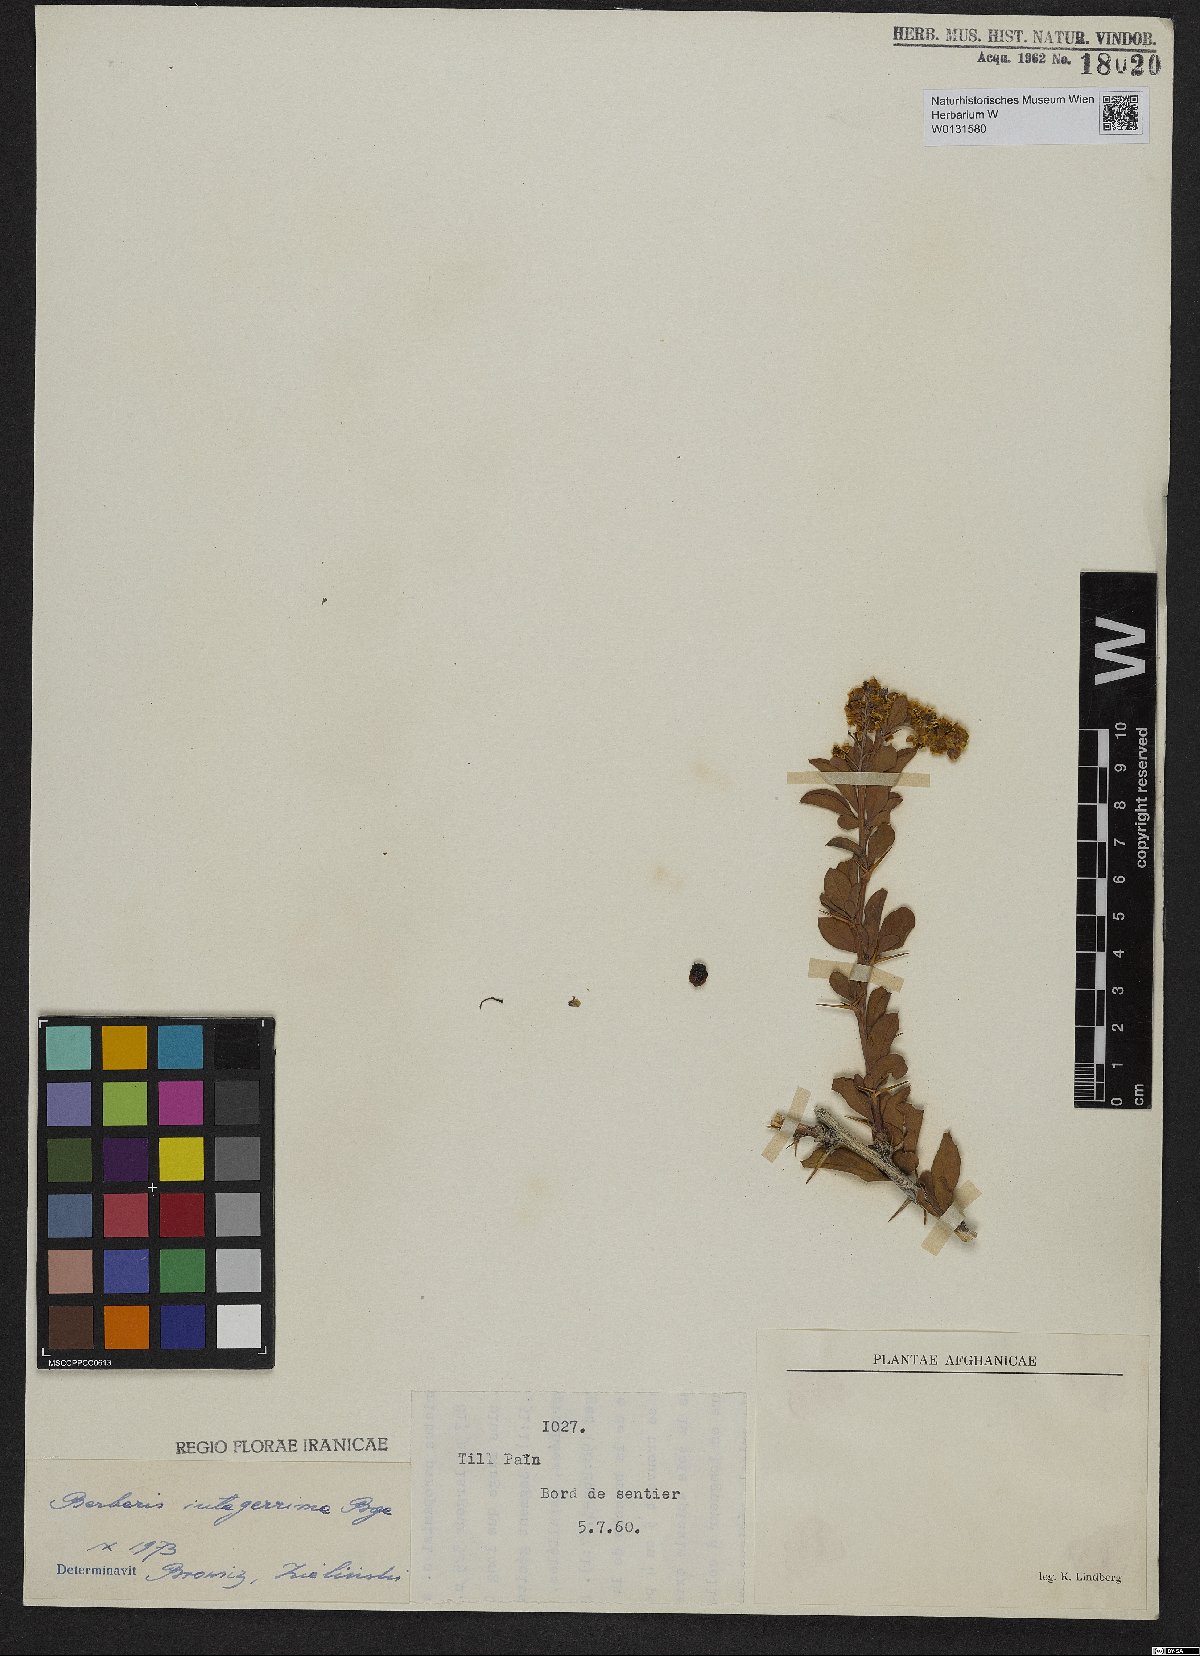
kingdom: Plantae
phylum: Tracheophyta
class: Magnoliopsida
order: Ranunculales
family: Berberidaceae
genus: Berberis
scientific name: Berberis integerrima
